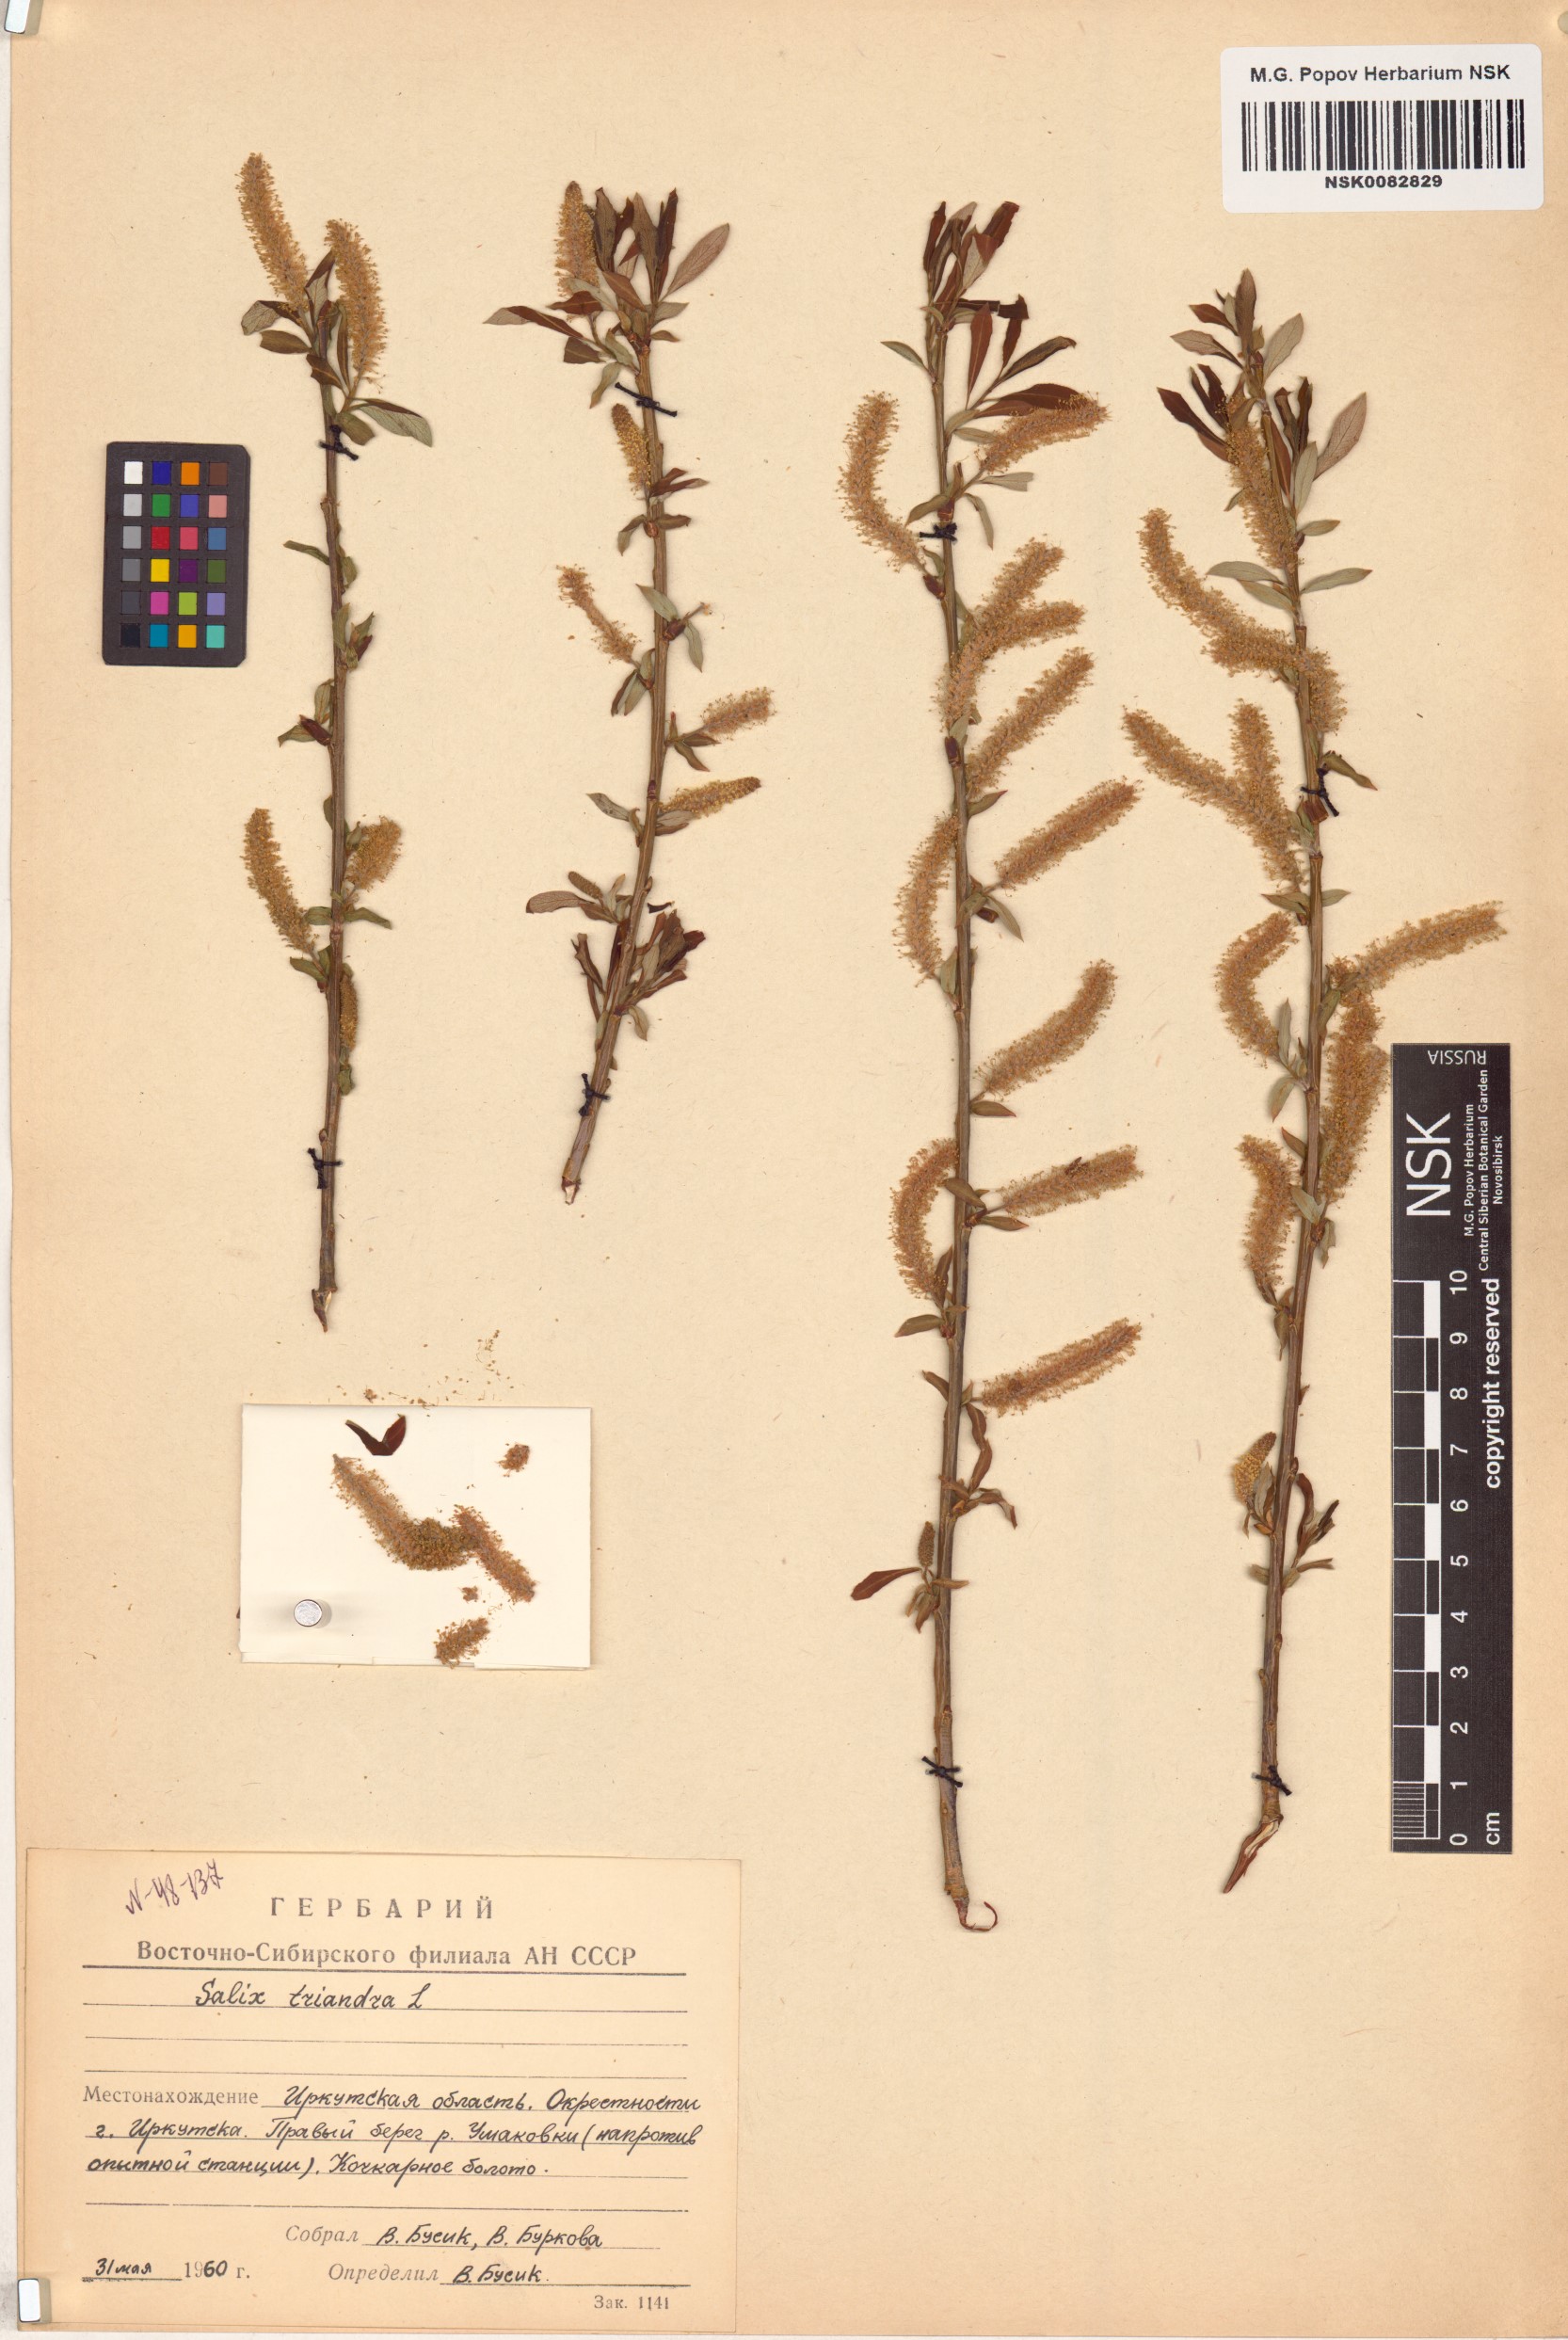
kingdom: Plantae
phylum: Tracheophyta
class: Magnoliopsida
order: Malpighiales
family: Salicaceae
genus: Salix
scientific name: Salix triandra
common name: Almond willow
